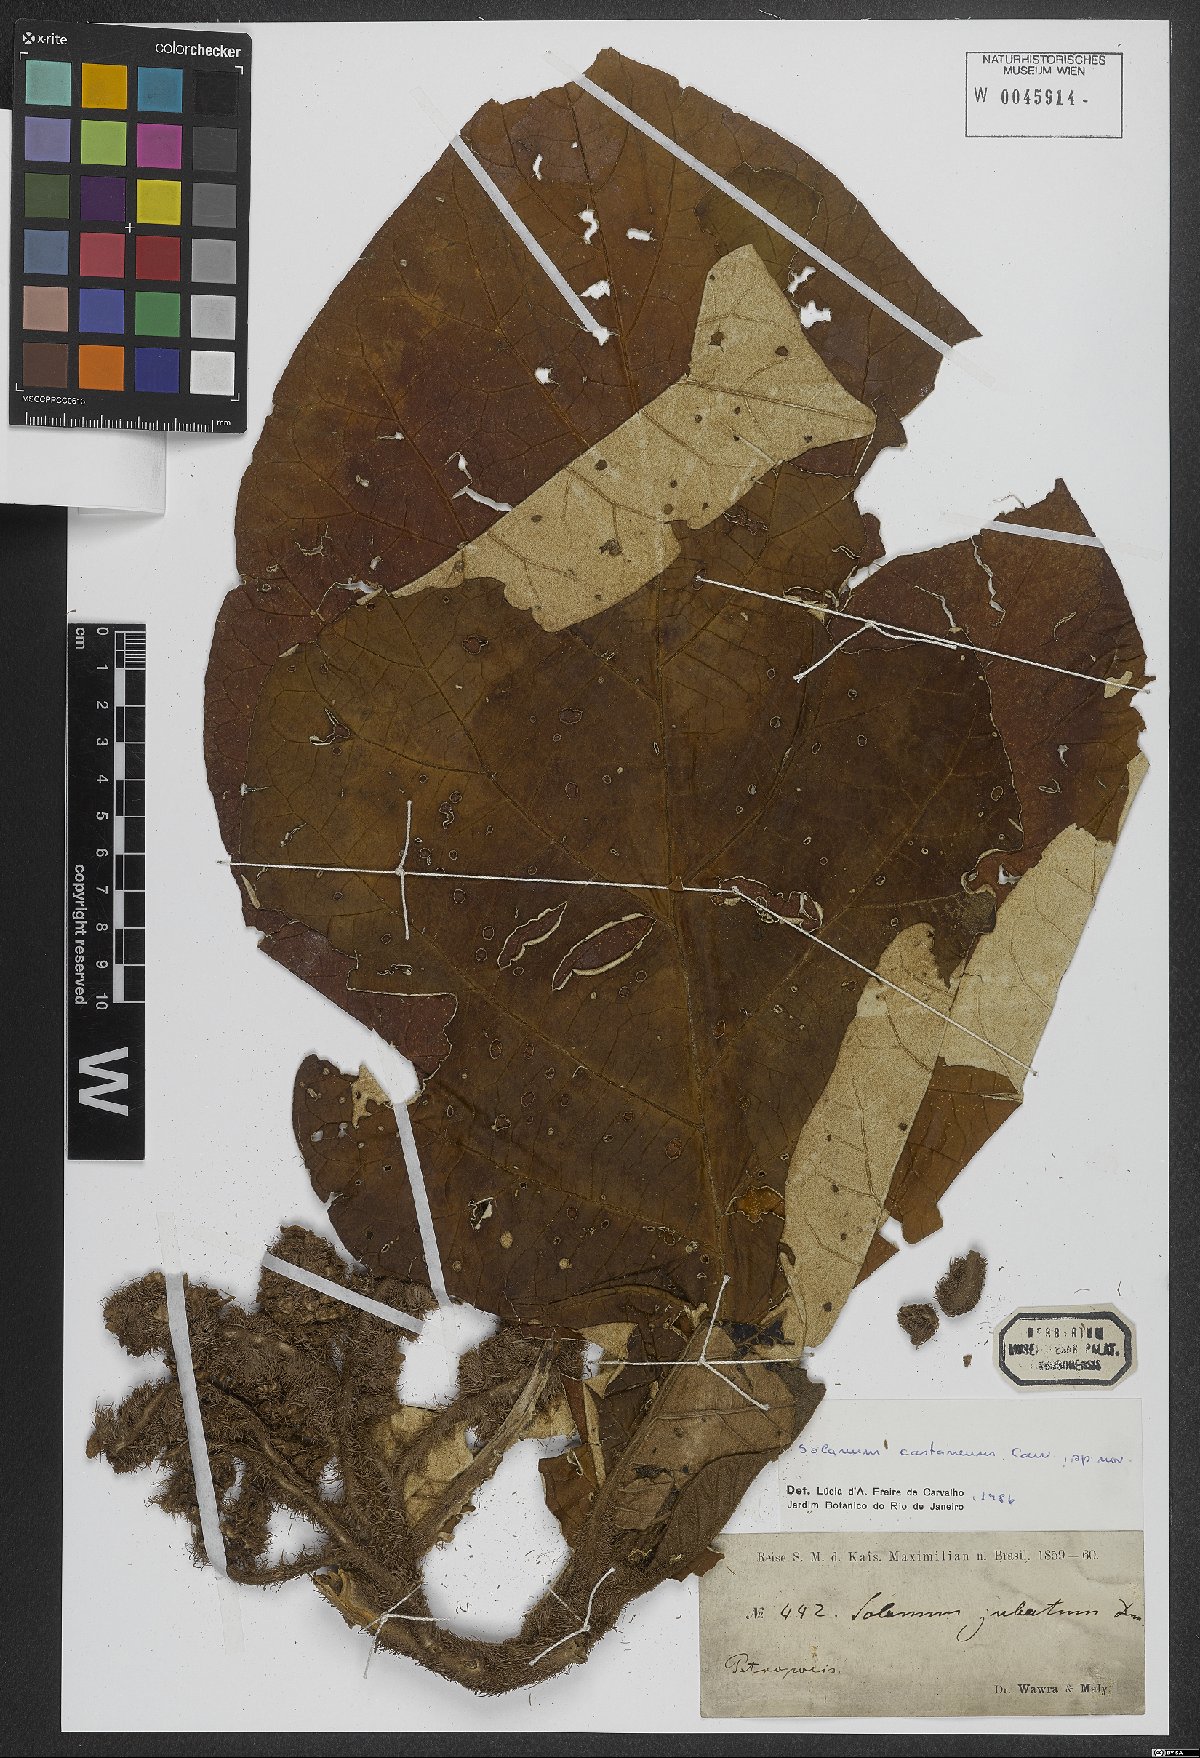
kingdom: Plantae
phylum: Tracheophyta
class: Magnoliopsida
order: Solanales
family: Solanaceae
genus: Solanum
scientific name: Solanum castaneum
